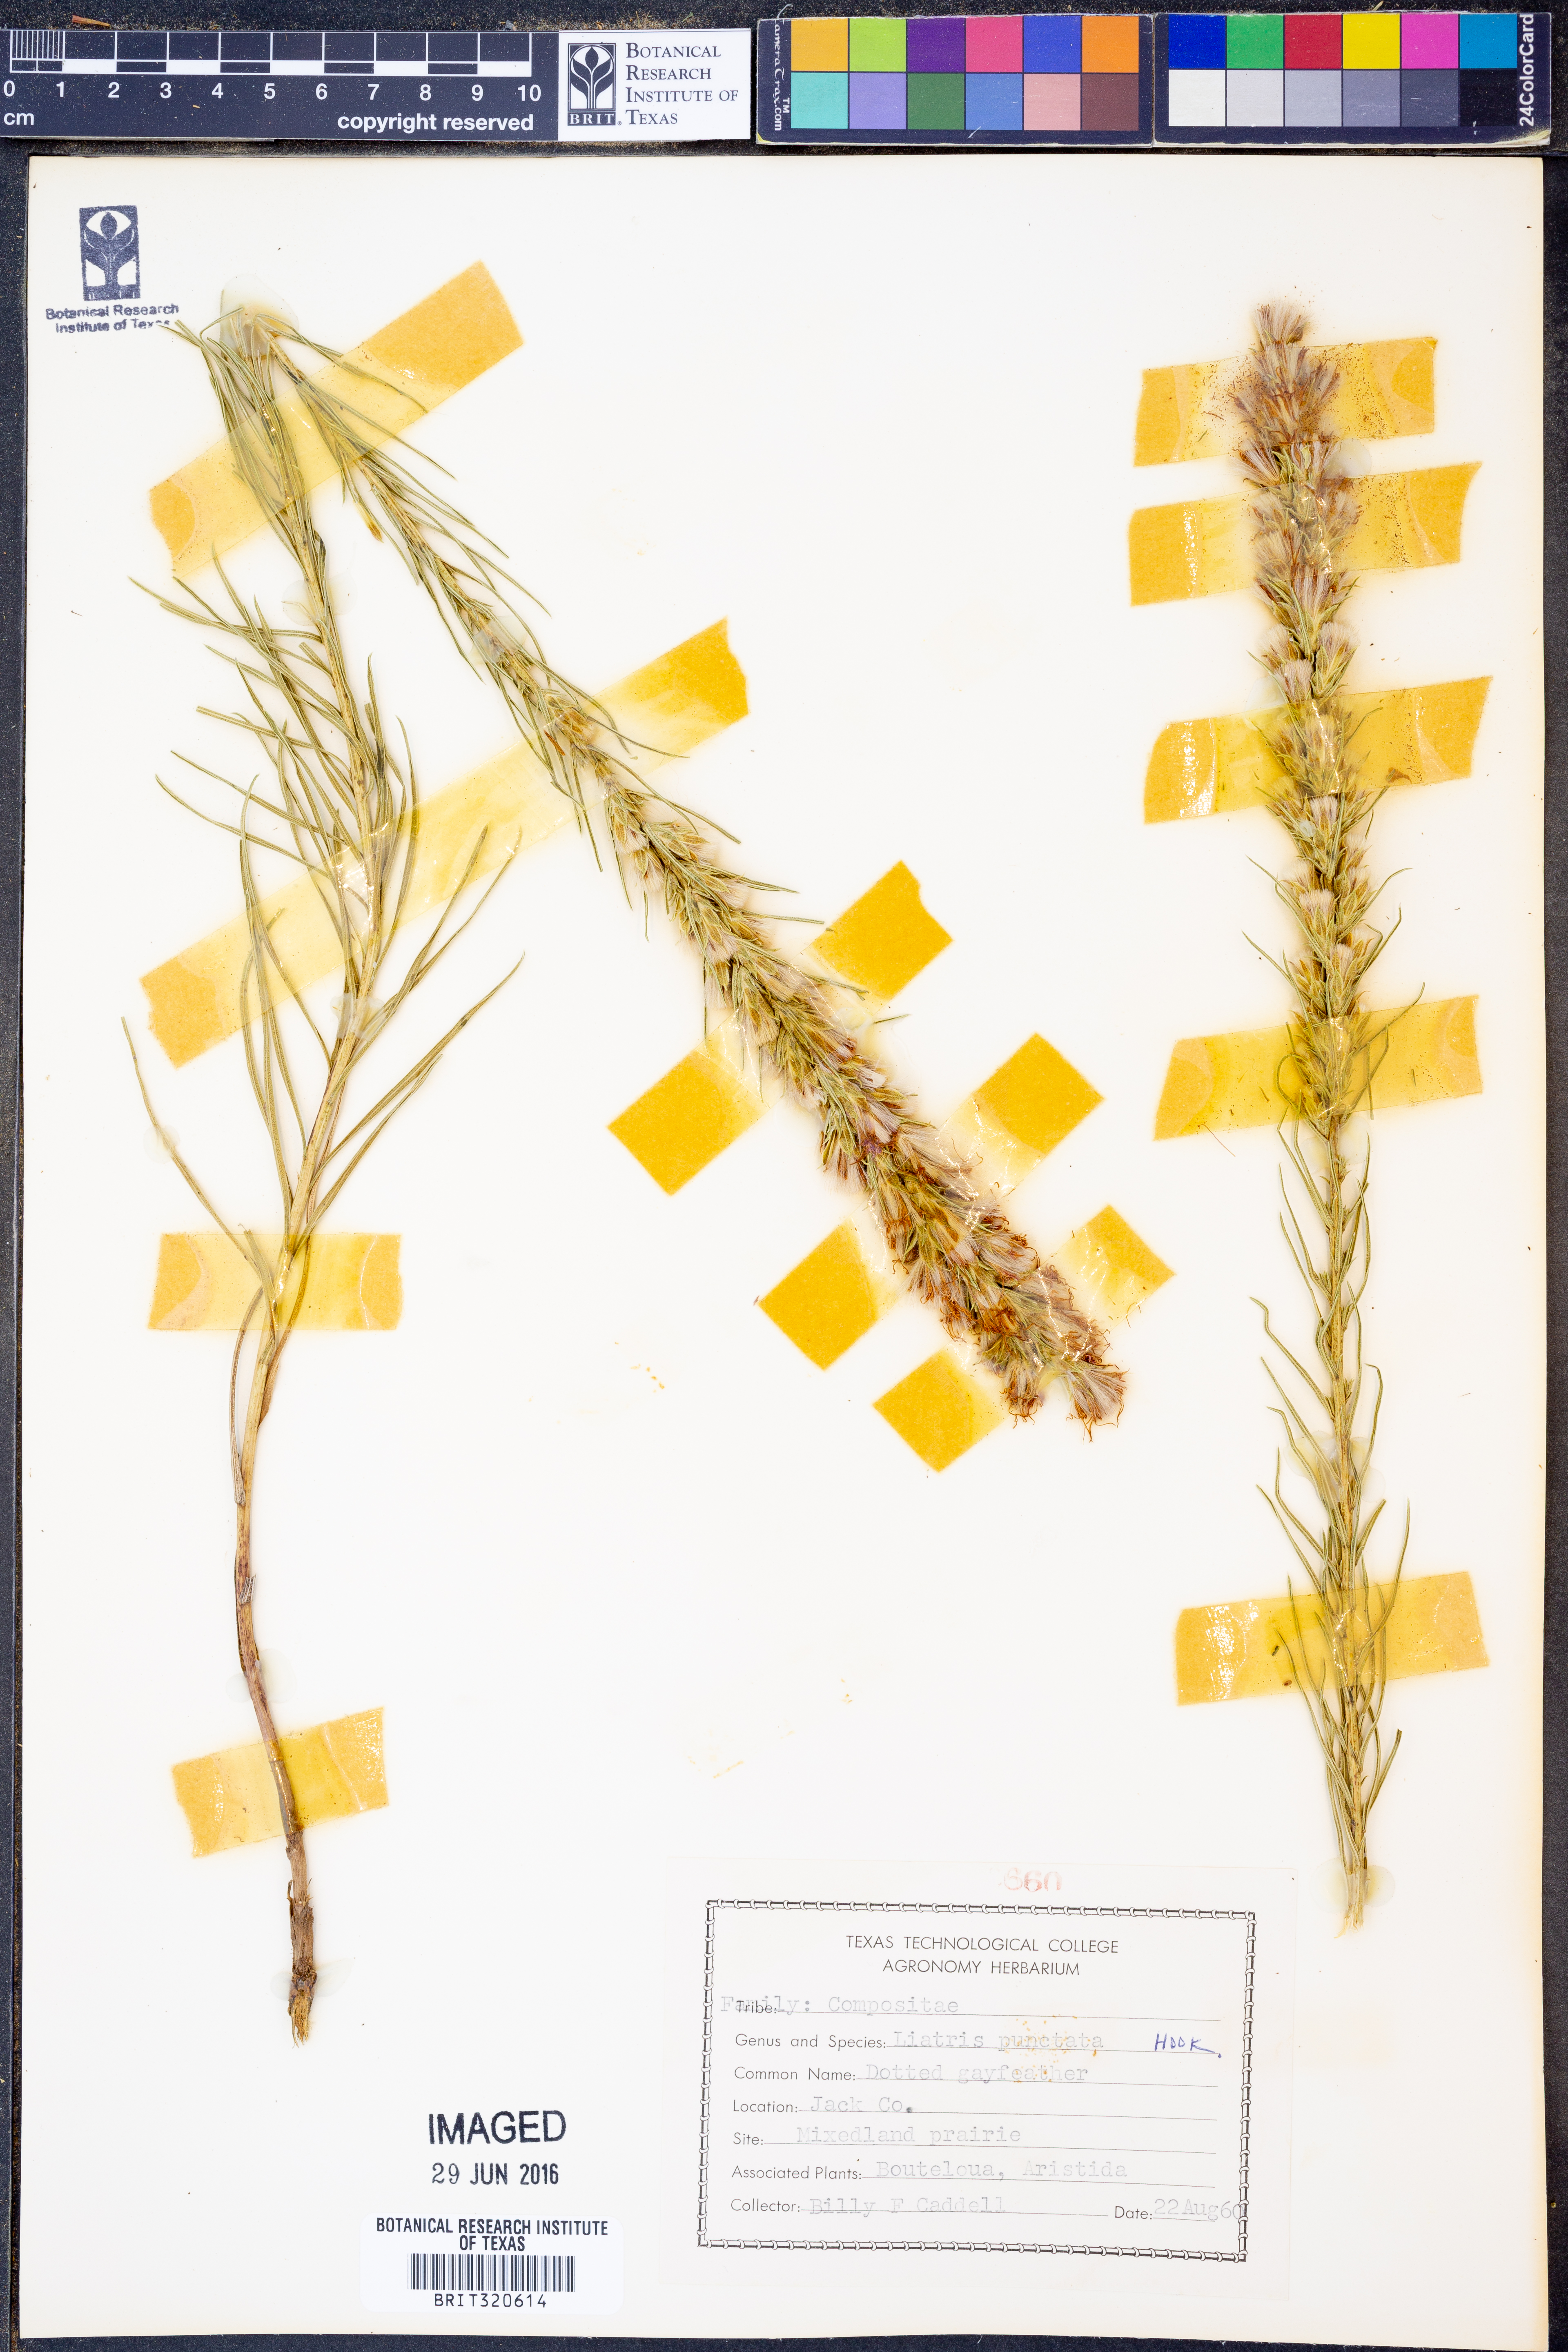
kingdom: Plantae
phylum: Tracheophyta
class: Magnoliopsida
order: Asterales
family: Asteraceae
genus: Liatris
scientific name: Liatris punctata
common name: Dotted gayfeather
